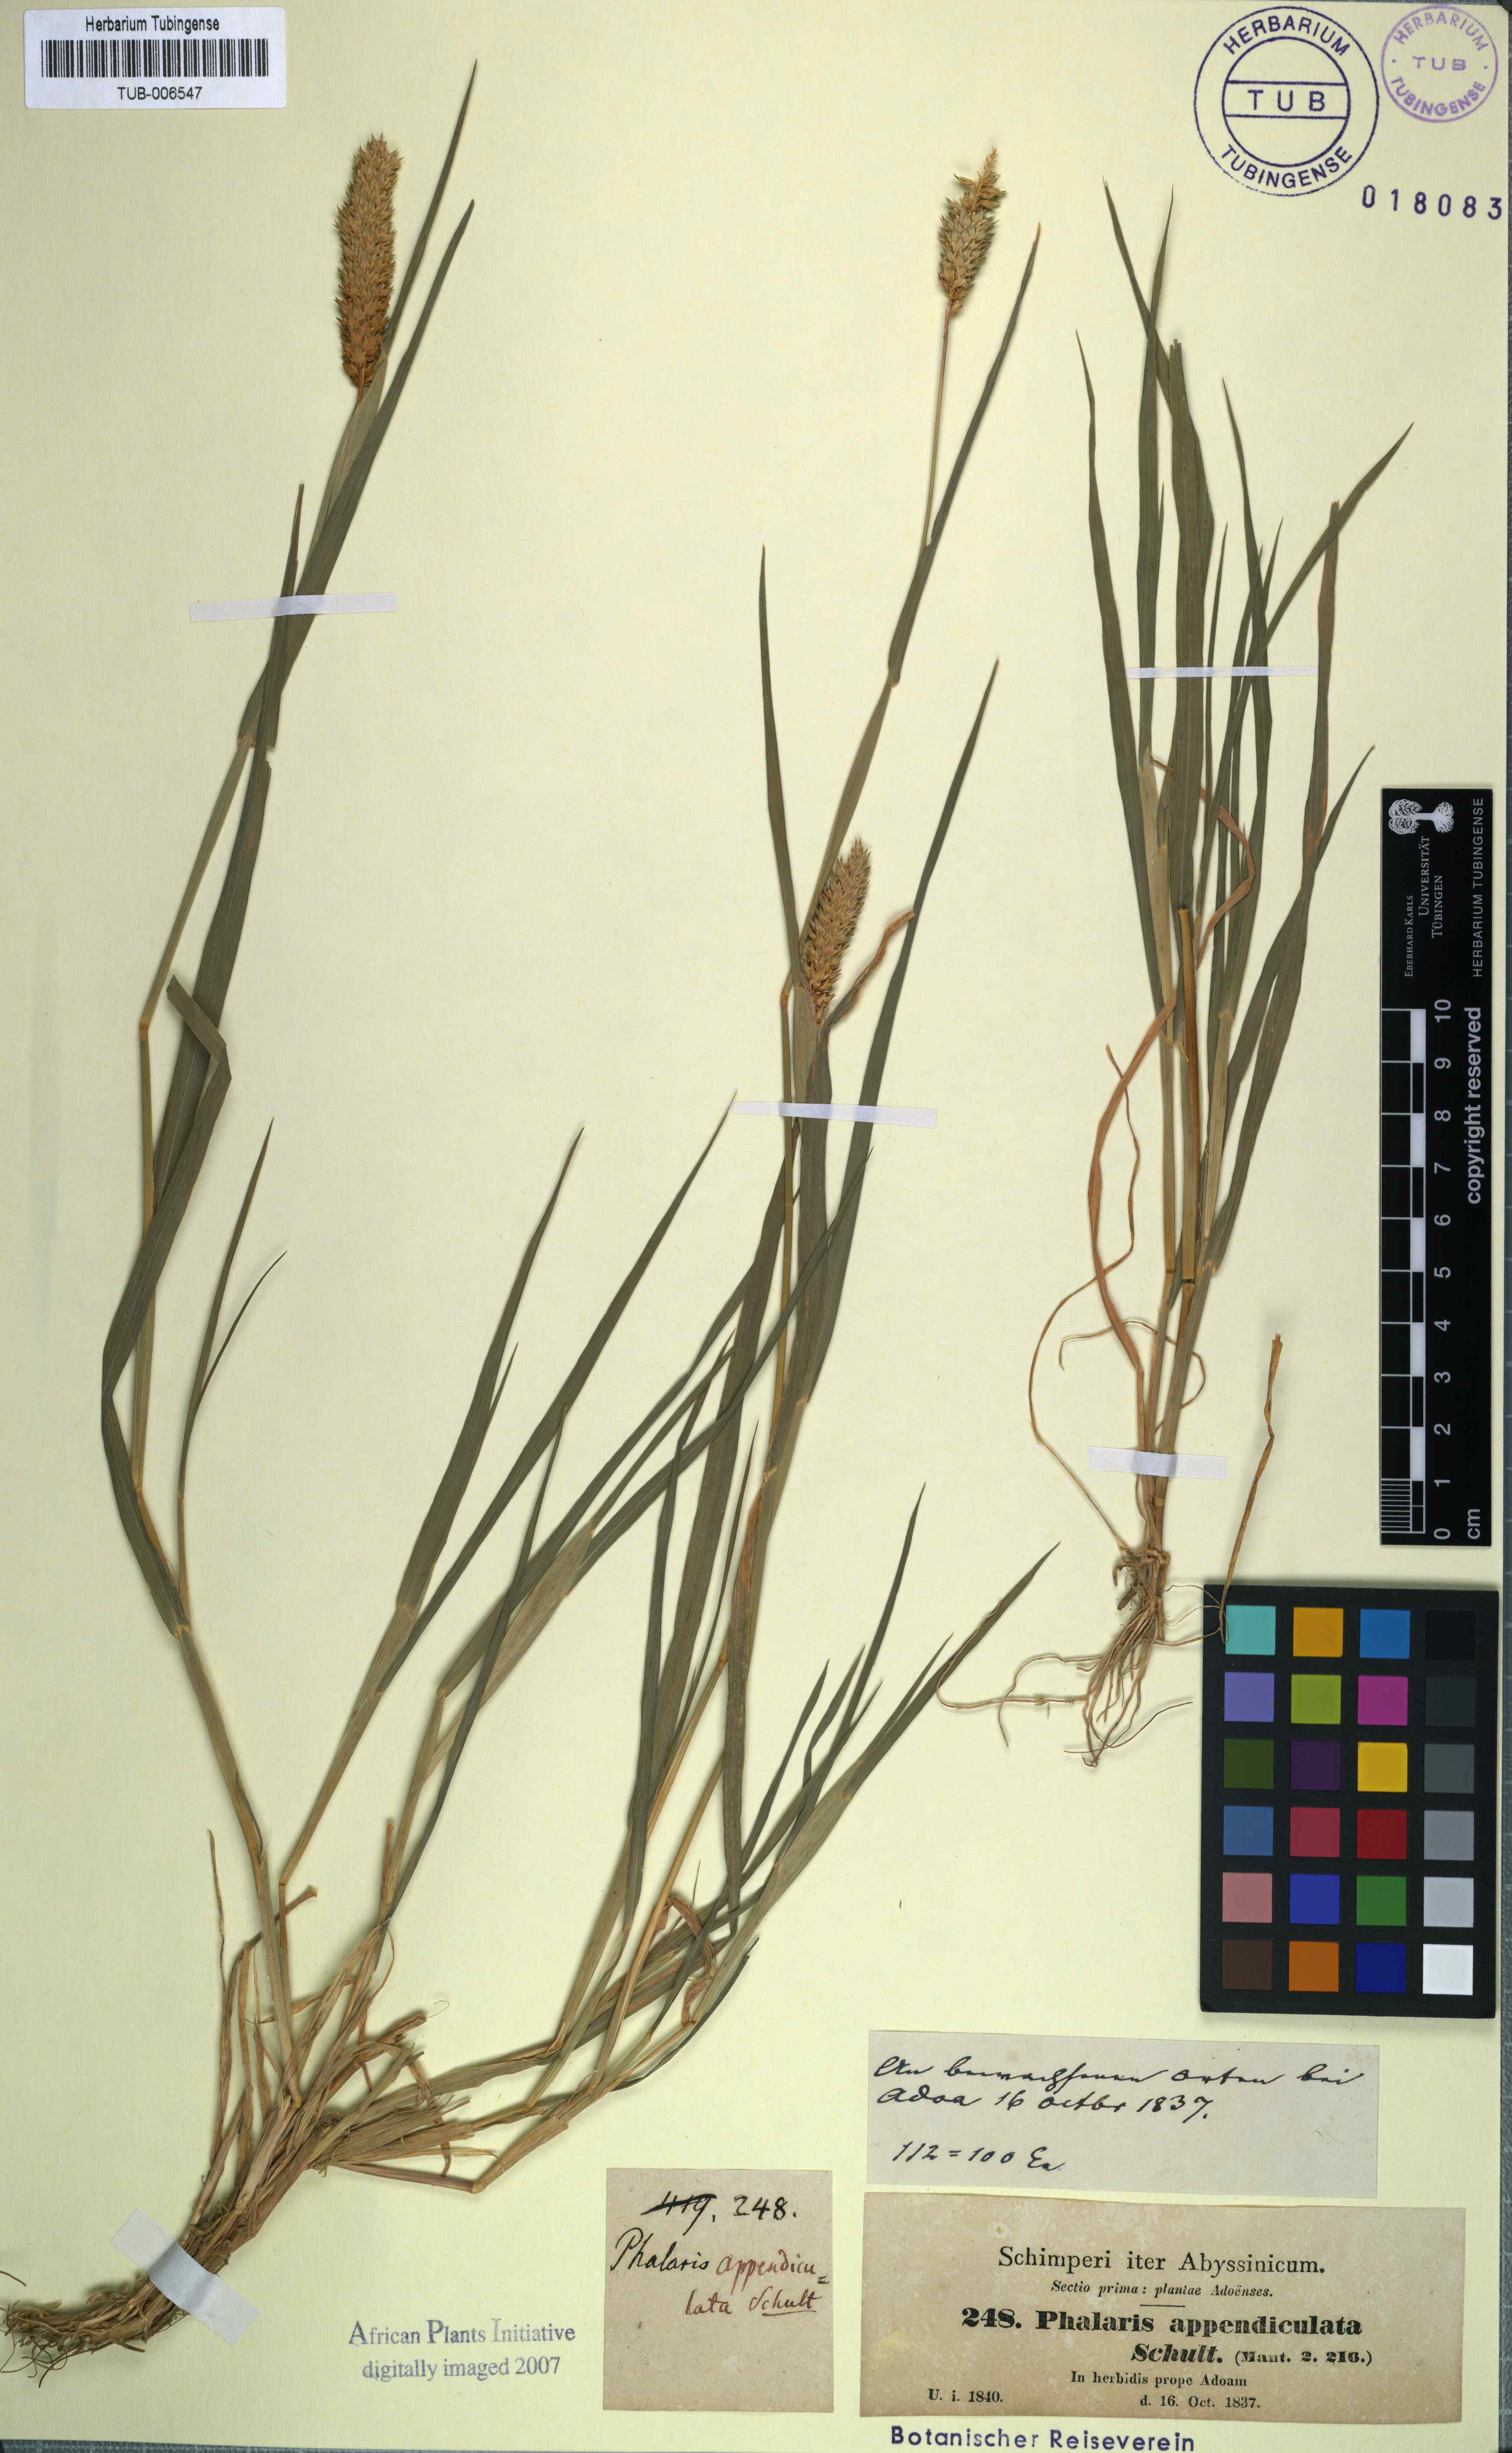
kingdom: Plantae
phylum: Tracheophyta
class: Liliopsida
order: Poales
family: Poaceae
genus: Phalaris
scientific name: Phalaris paradoxa
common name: Awned canary-grass
